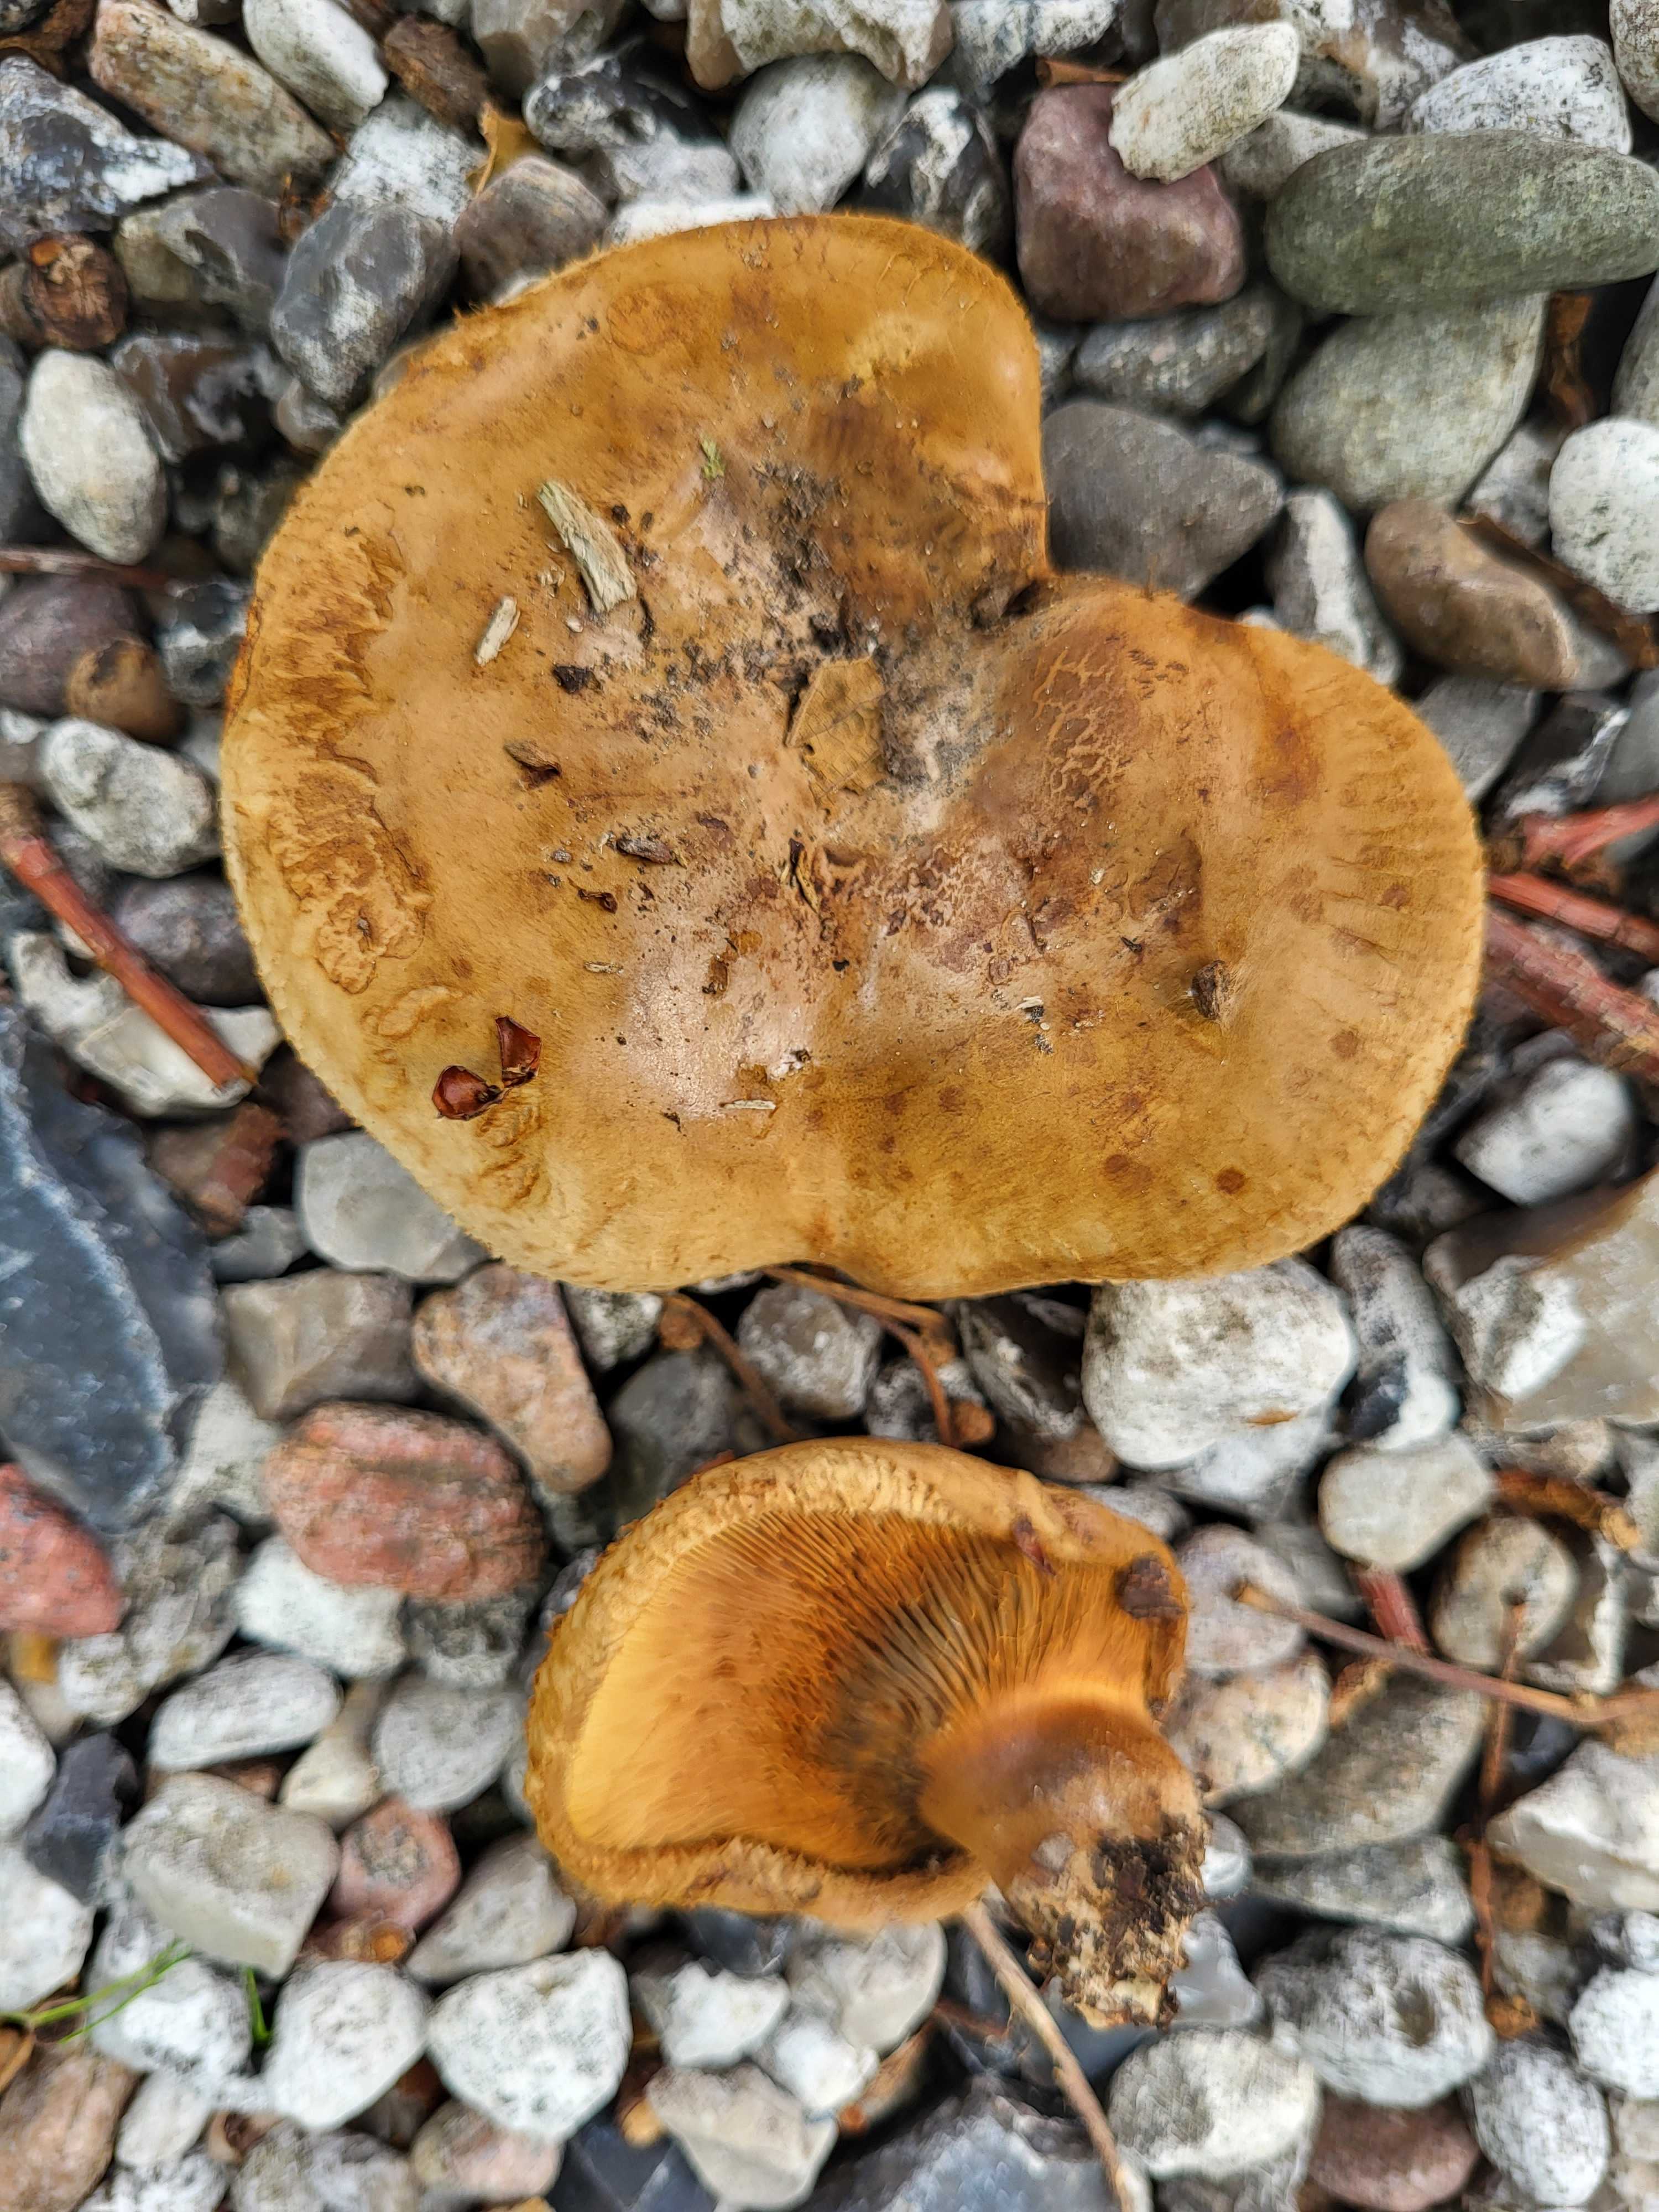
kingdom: Fungi
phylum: Basidiomycota
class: Agaricomycetes
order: Boletales
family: Paxillaceae
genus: Paxillus
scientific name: Paxillus involutus
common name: almindelig netbladhat
